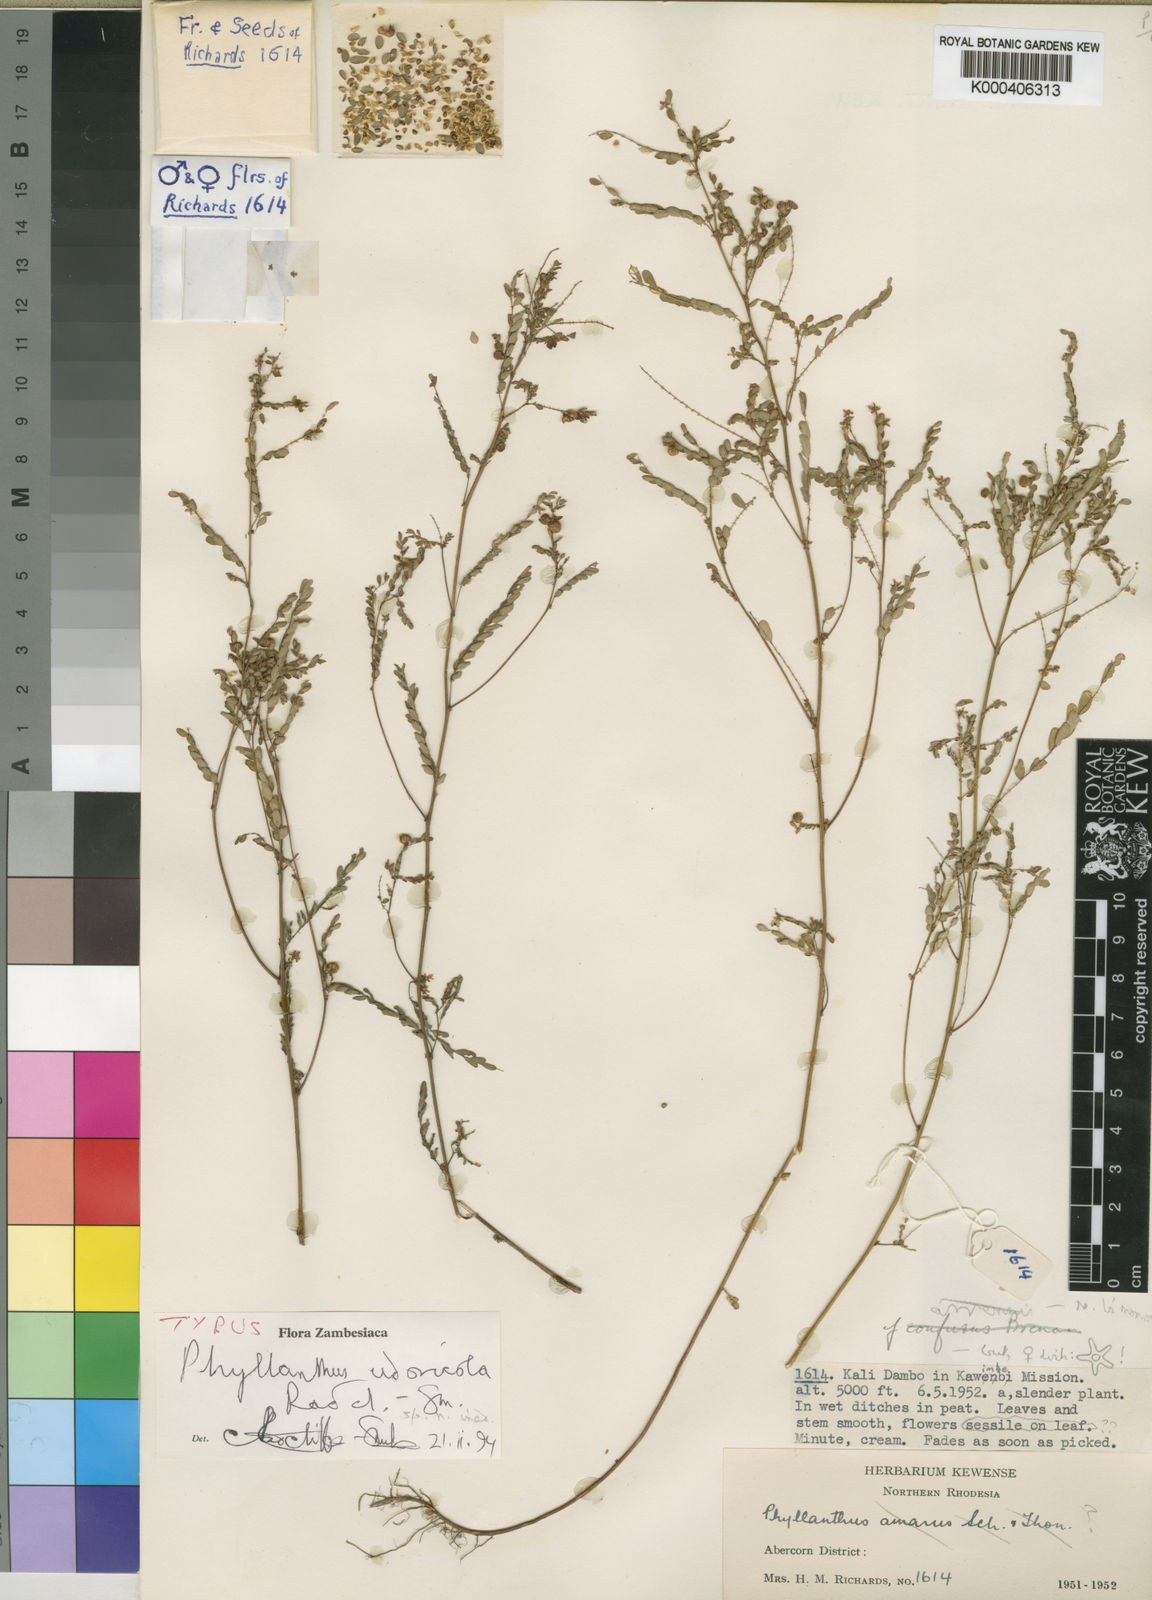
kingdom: Plantae
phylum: Tracheophyta
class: Magnoliopsida
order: Malpighiales
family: Phyllanthaceae
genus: Phyllanthus
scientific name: Phyllanthus udoricola
